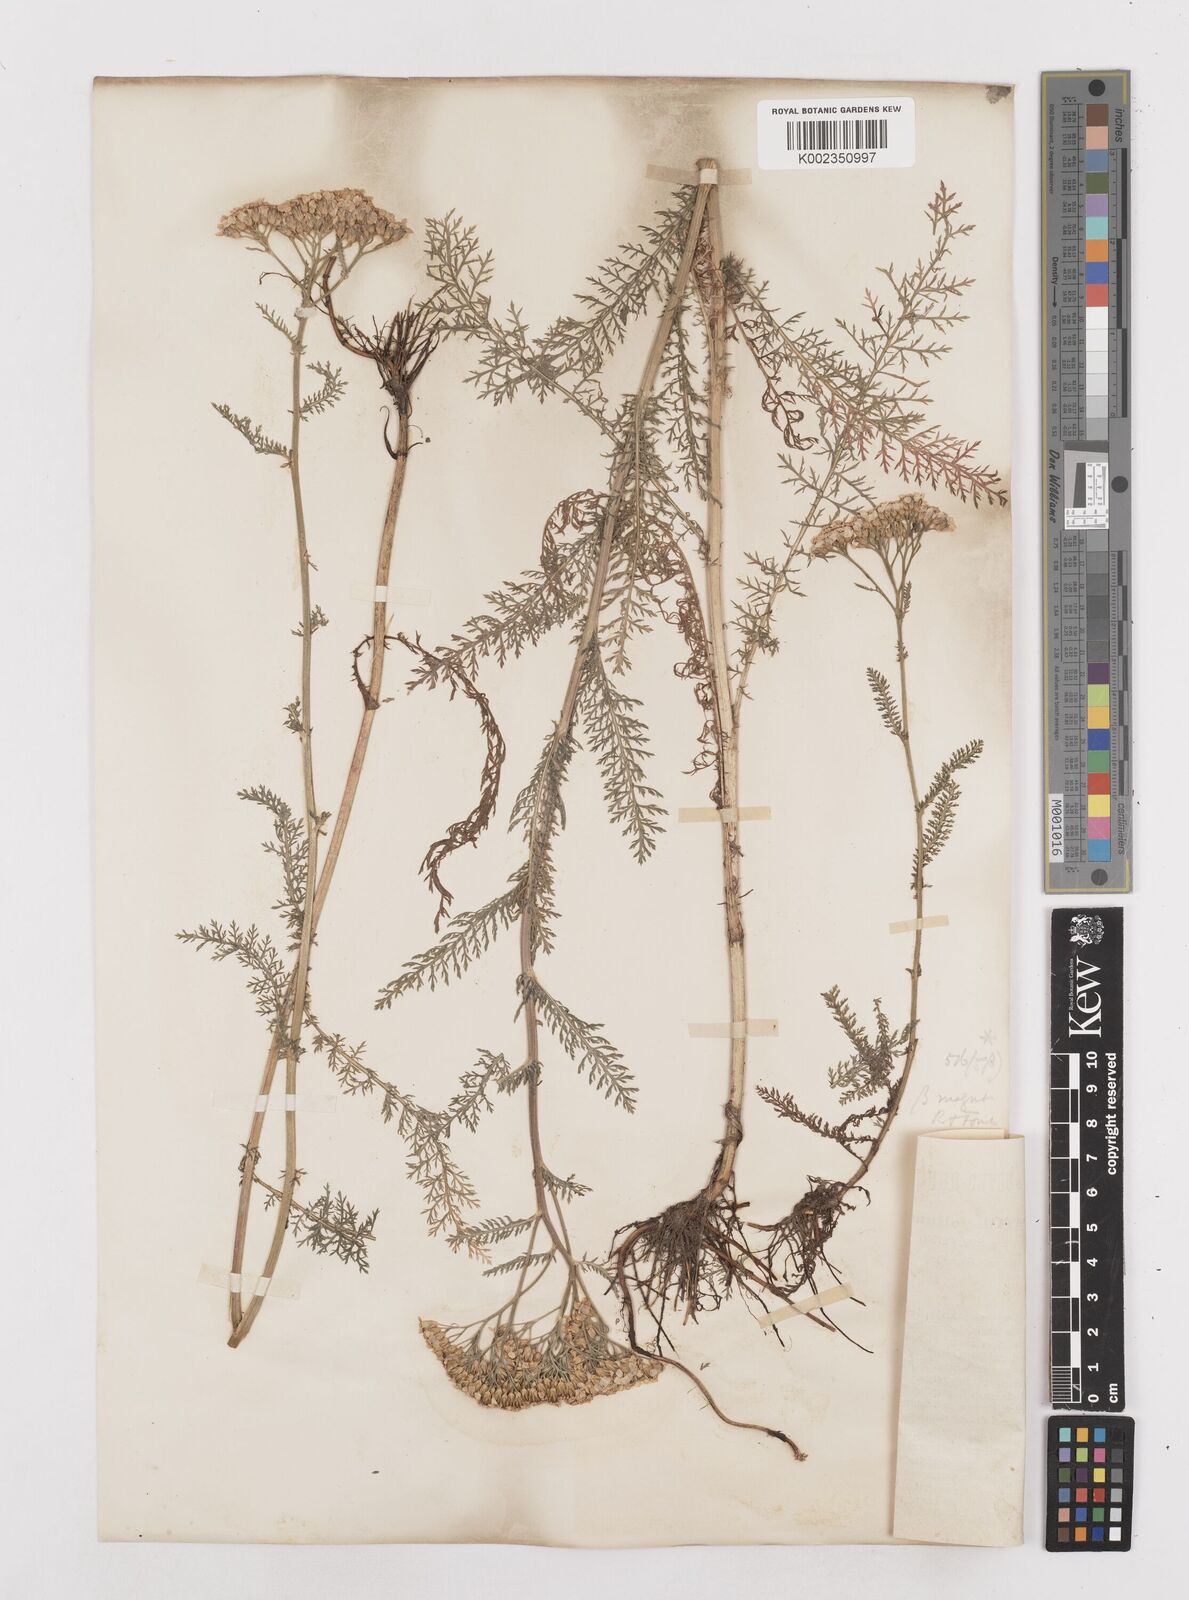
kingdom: Plantae
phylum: Tracheophyta
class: Magnoliopsida
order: Asterales
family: Asteraceae
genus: Achillea
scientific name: Achillea millefolium
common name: Yarrow
